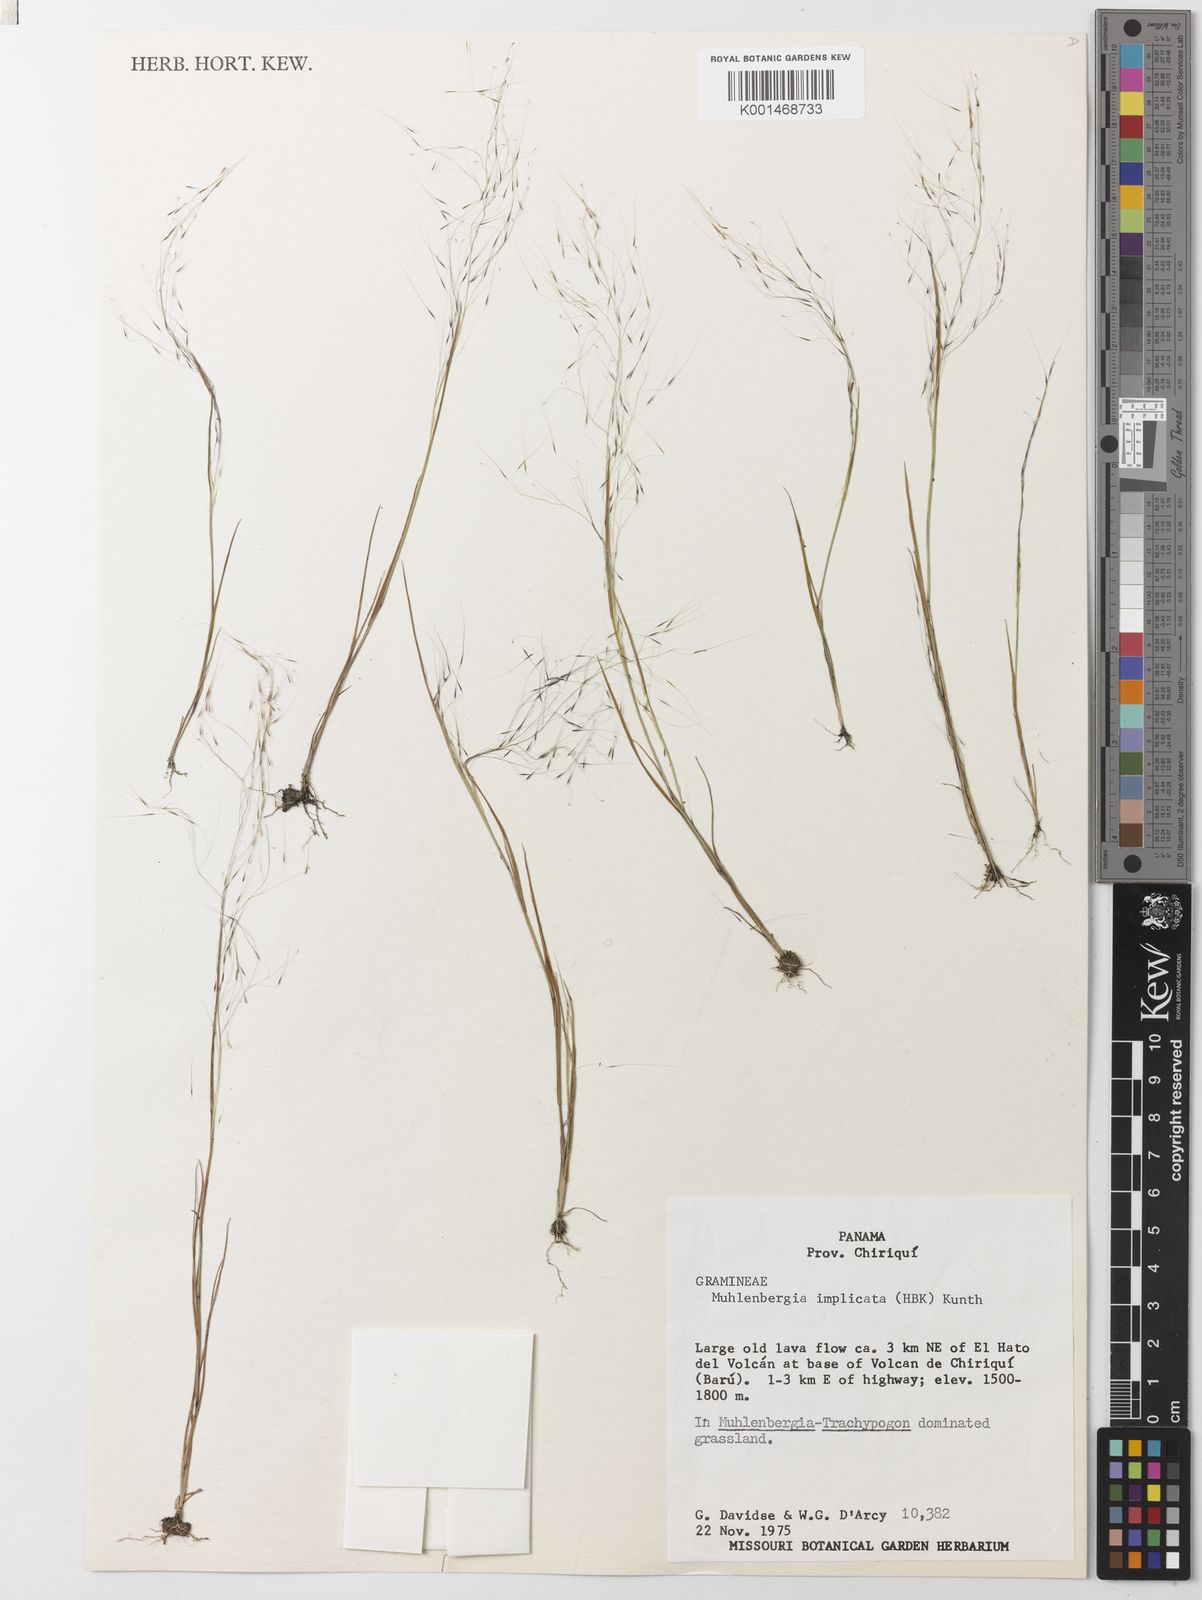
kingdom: Plantae
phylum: Tracheophyta
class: Liliopsida
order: Poales
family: Poaceae
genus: Muhlenbergia
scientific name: Muhlenbergia implicata
